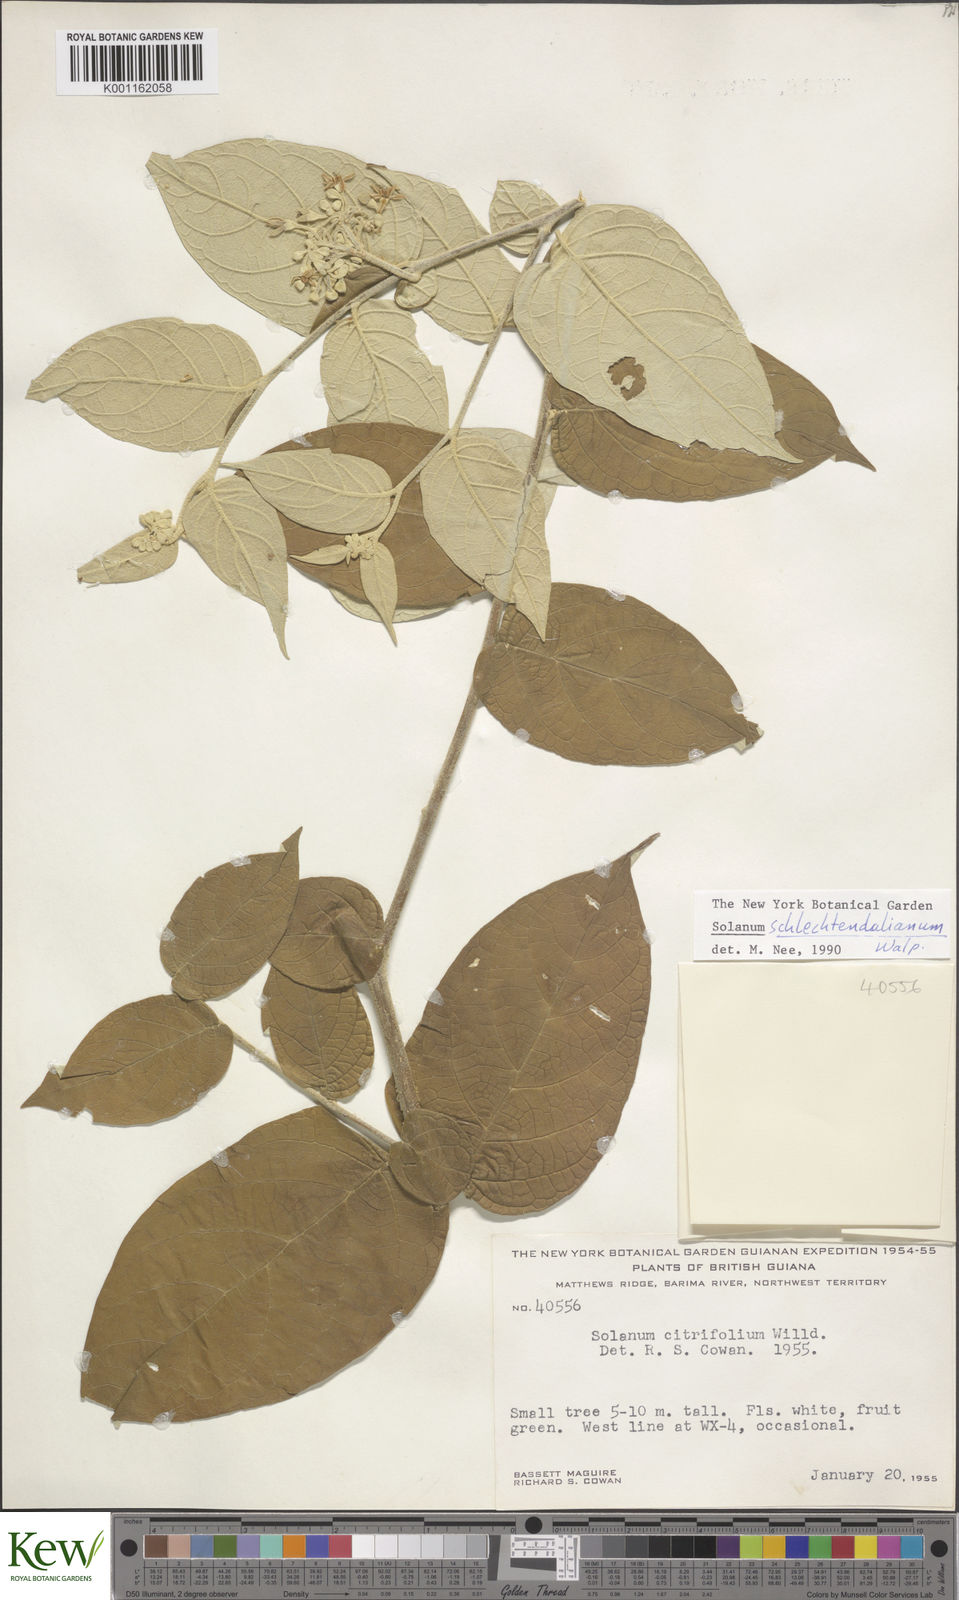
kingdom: Plantae
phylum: Tracheophyta
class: Magnoliopsida
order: Solanales
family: Solanaceae
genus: Solanum
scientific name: Solanum schlechtendalianum
